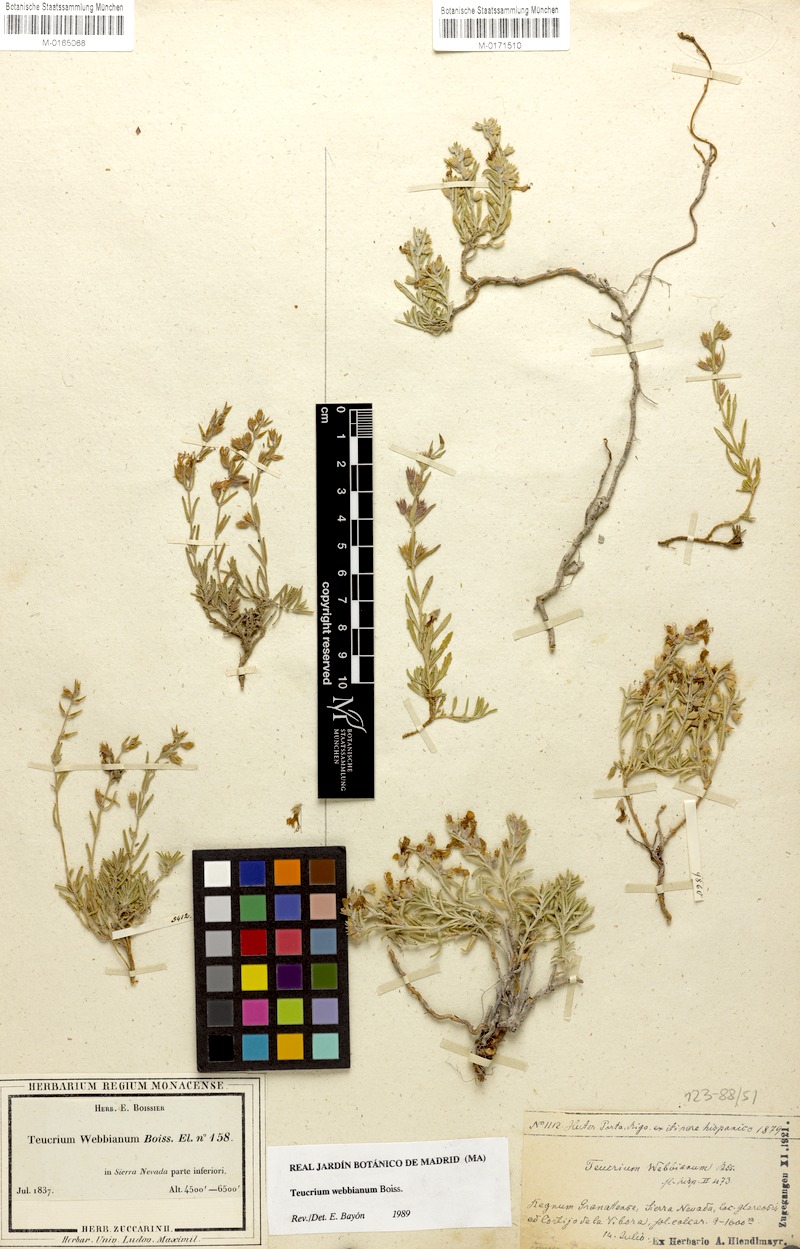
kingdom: Plantae
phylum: Tracheophyta
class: Magnoliopsida
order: Lamiales
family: Lamiaceae
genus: Teucrium
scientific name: Teucrium webbianum
